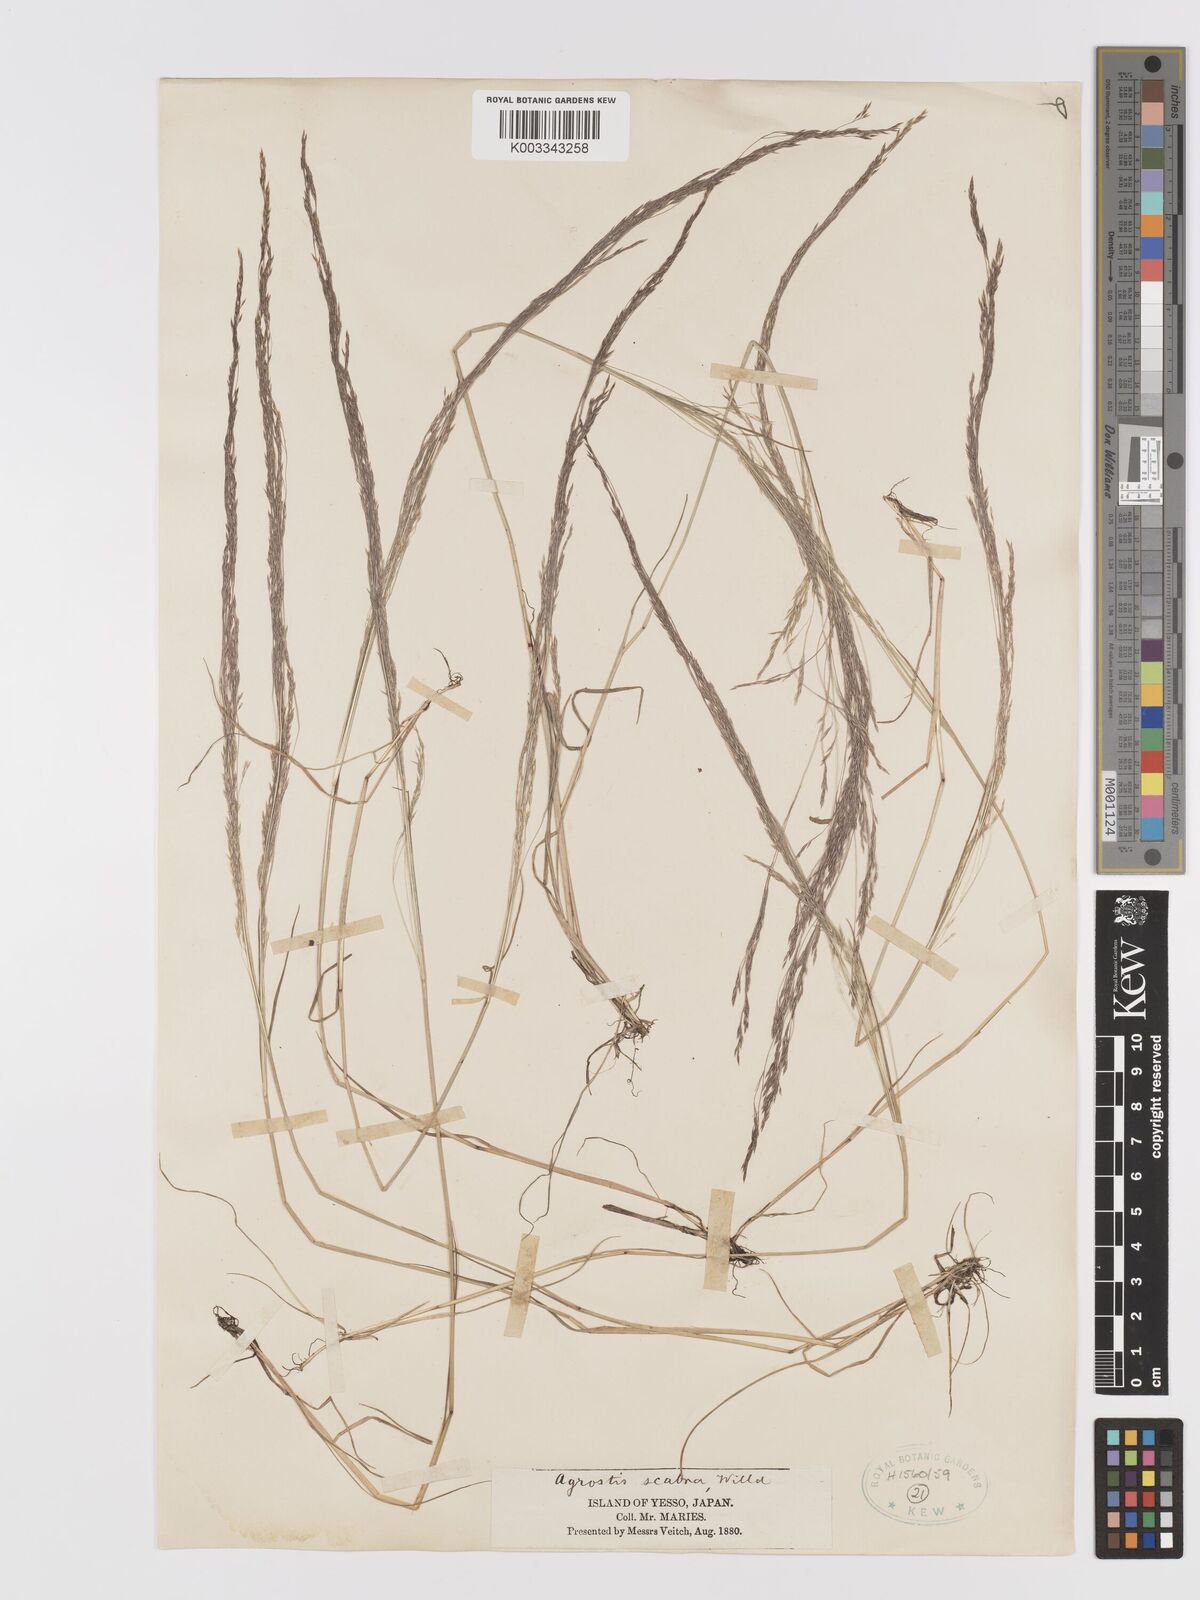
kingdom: Plantae
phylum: Tracheophyta
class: Liliopsida
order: Poales
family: Poaceae
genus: Agrostis
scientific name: Agrostis scabra
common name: Rough bent
